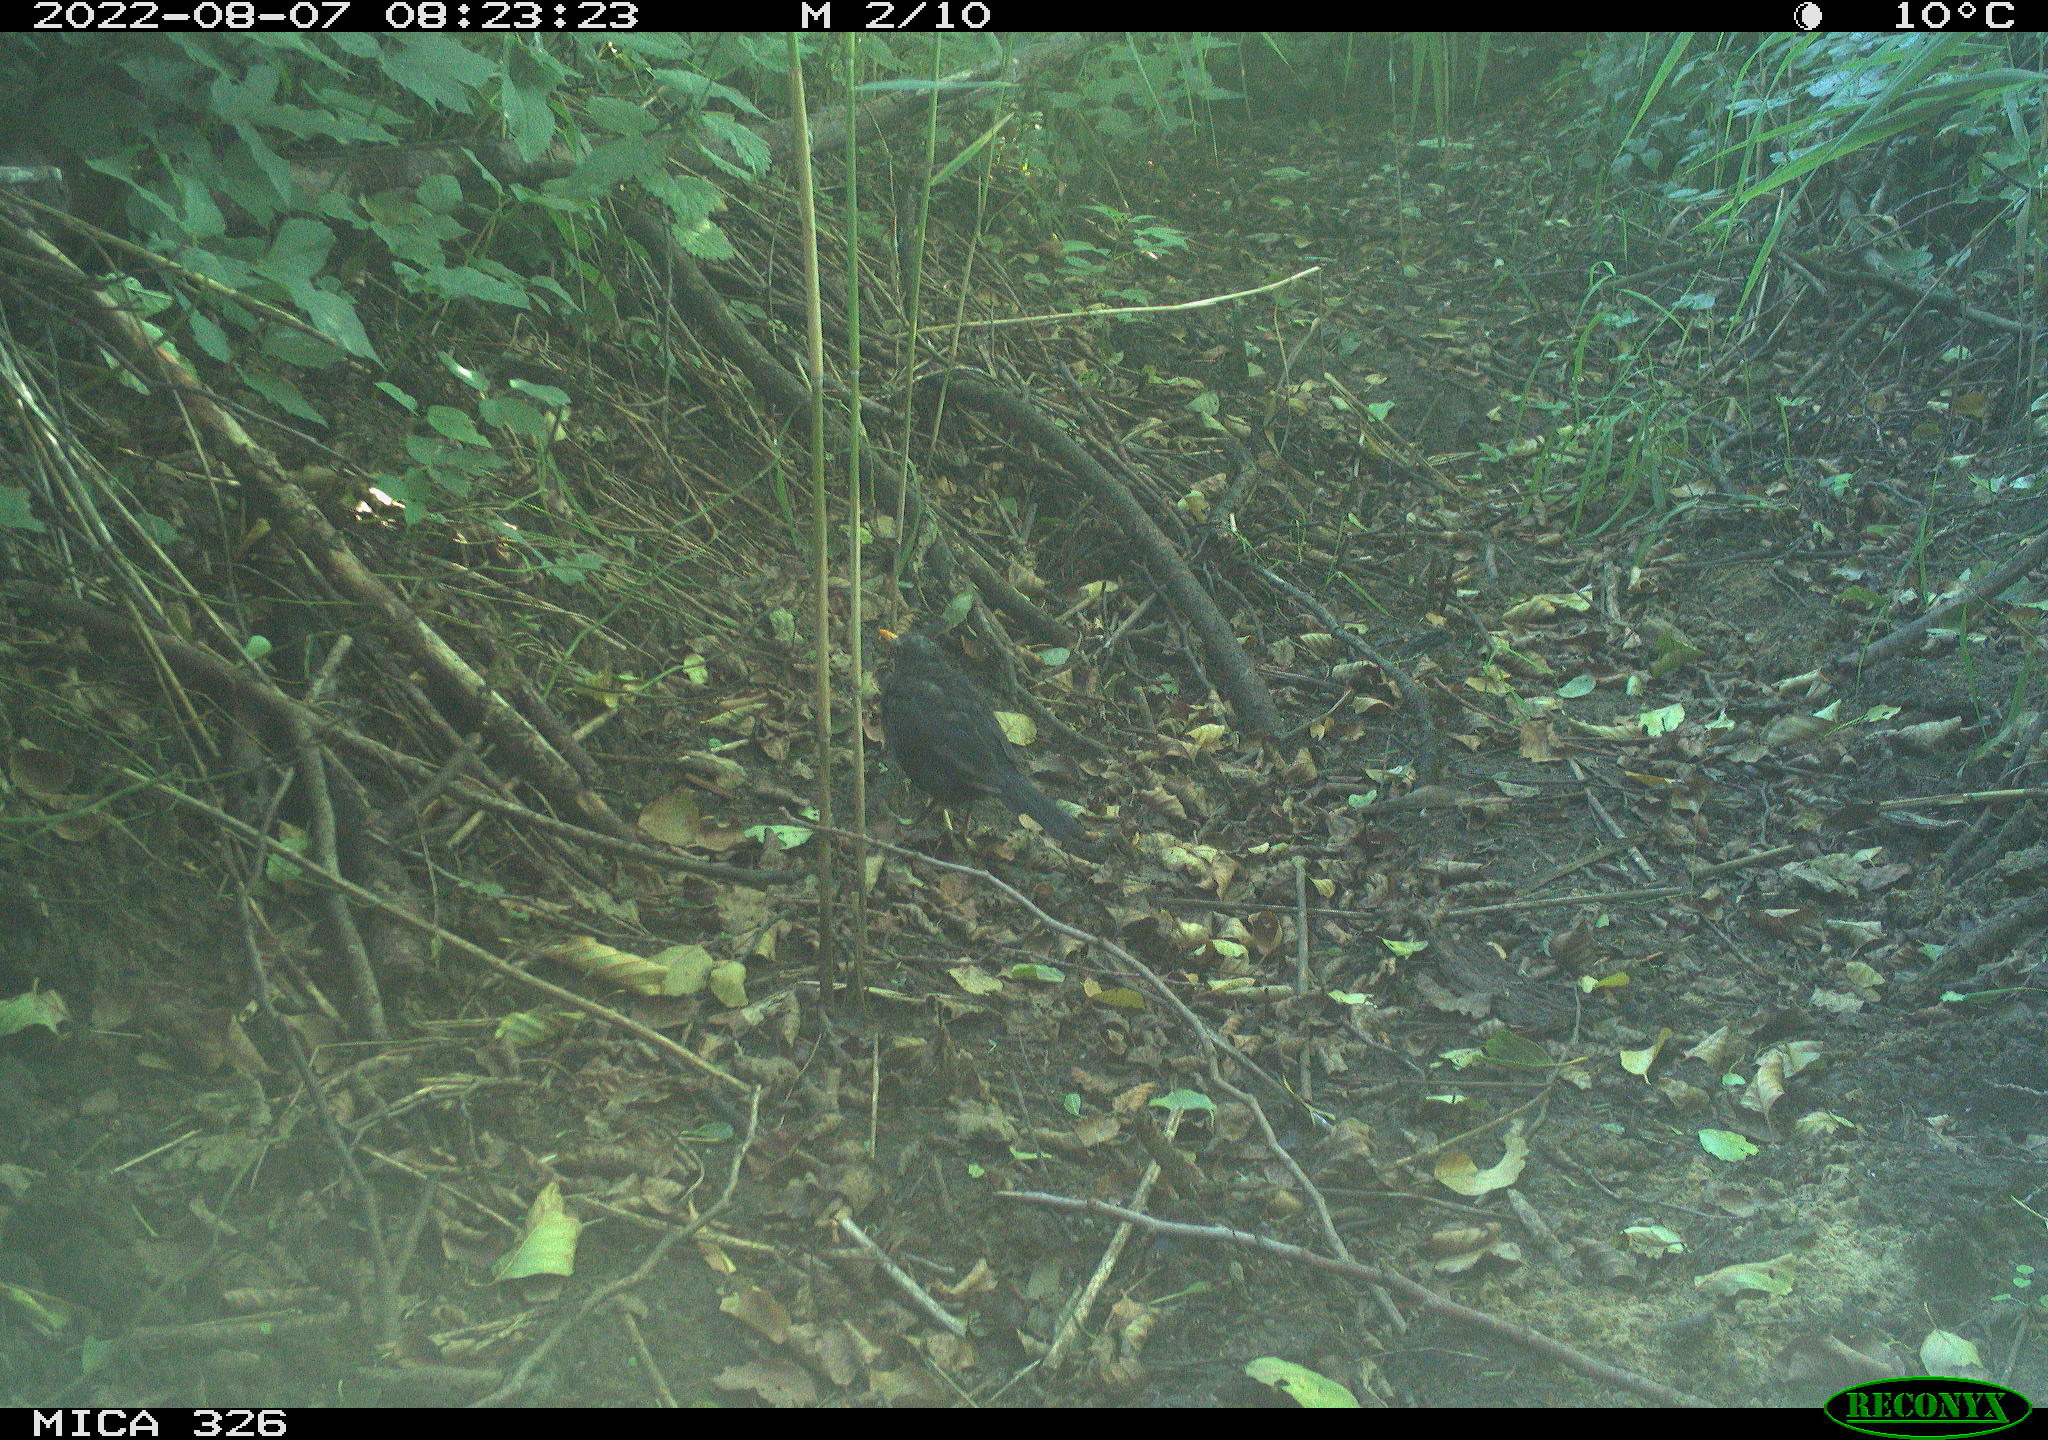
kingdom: Animalia
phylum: Chordata
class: Aves
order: Passeriformes
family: Turdidae
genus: Turdus
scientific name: Turdus merula
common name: Common blackbird
